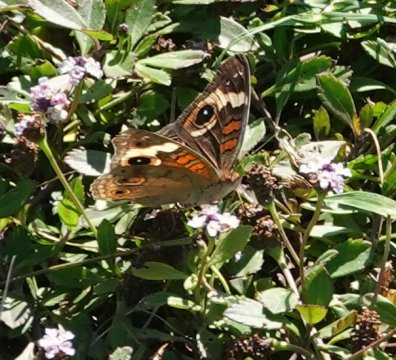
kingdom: Animalia
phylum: Arthropoda
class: Insecta
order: Lepidoptera
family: Nymphalidae
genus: Junonia
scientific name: Junonia coenia
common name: Common Buckeye
